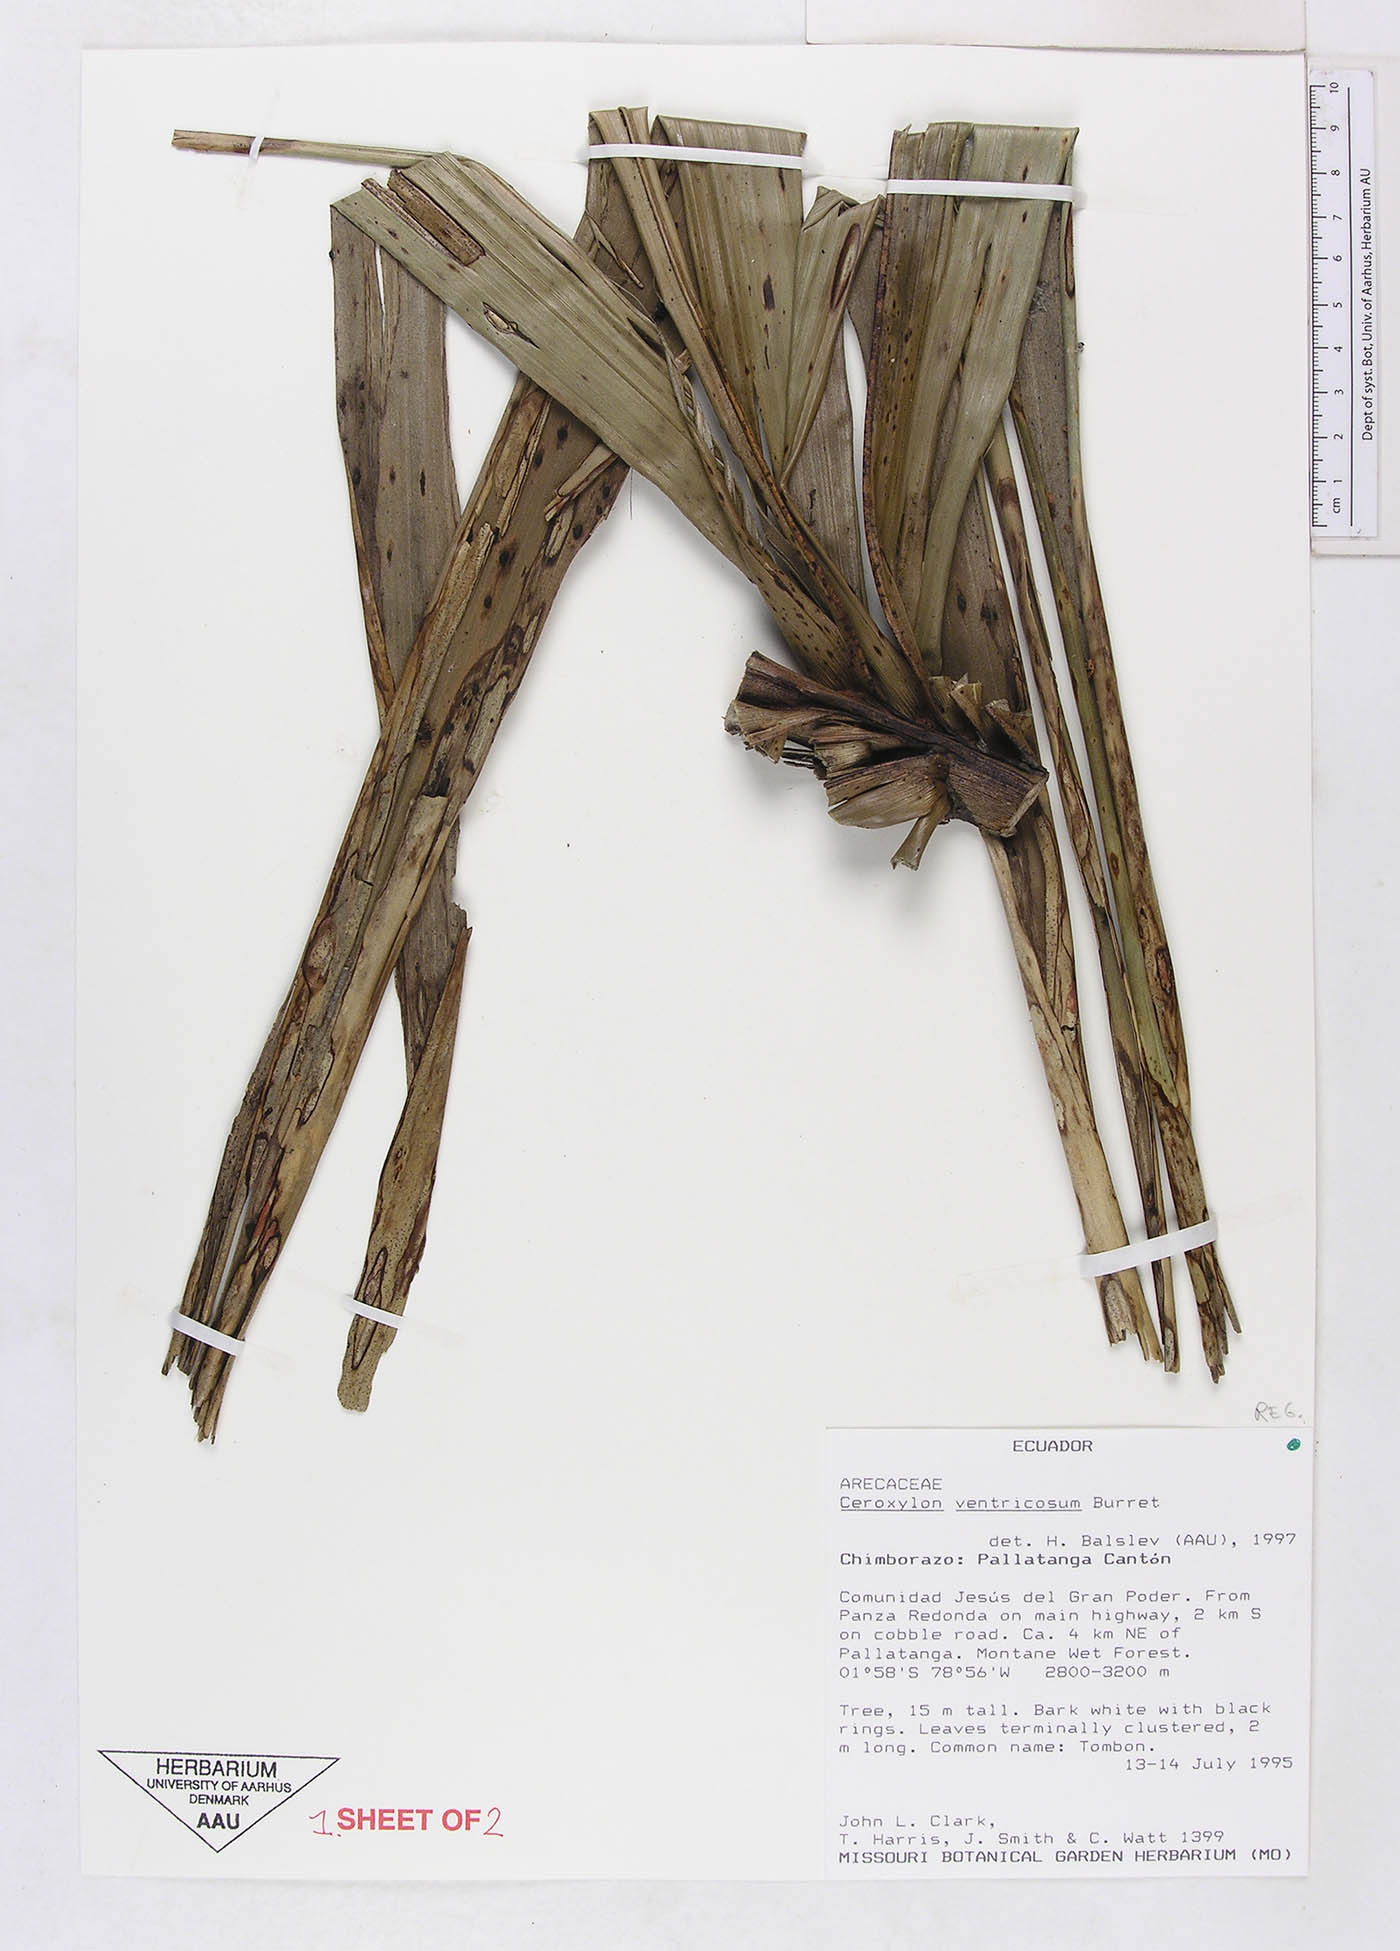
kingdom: Plantae
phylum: Tracheophyta
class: Liliopsida
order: Arecales
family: Arecaceae
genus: Ceroxylon
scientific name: Ceroxylon ventricosum
